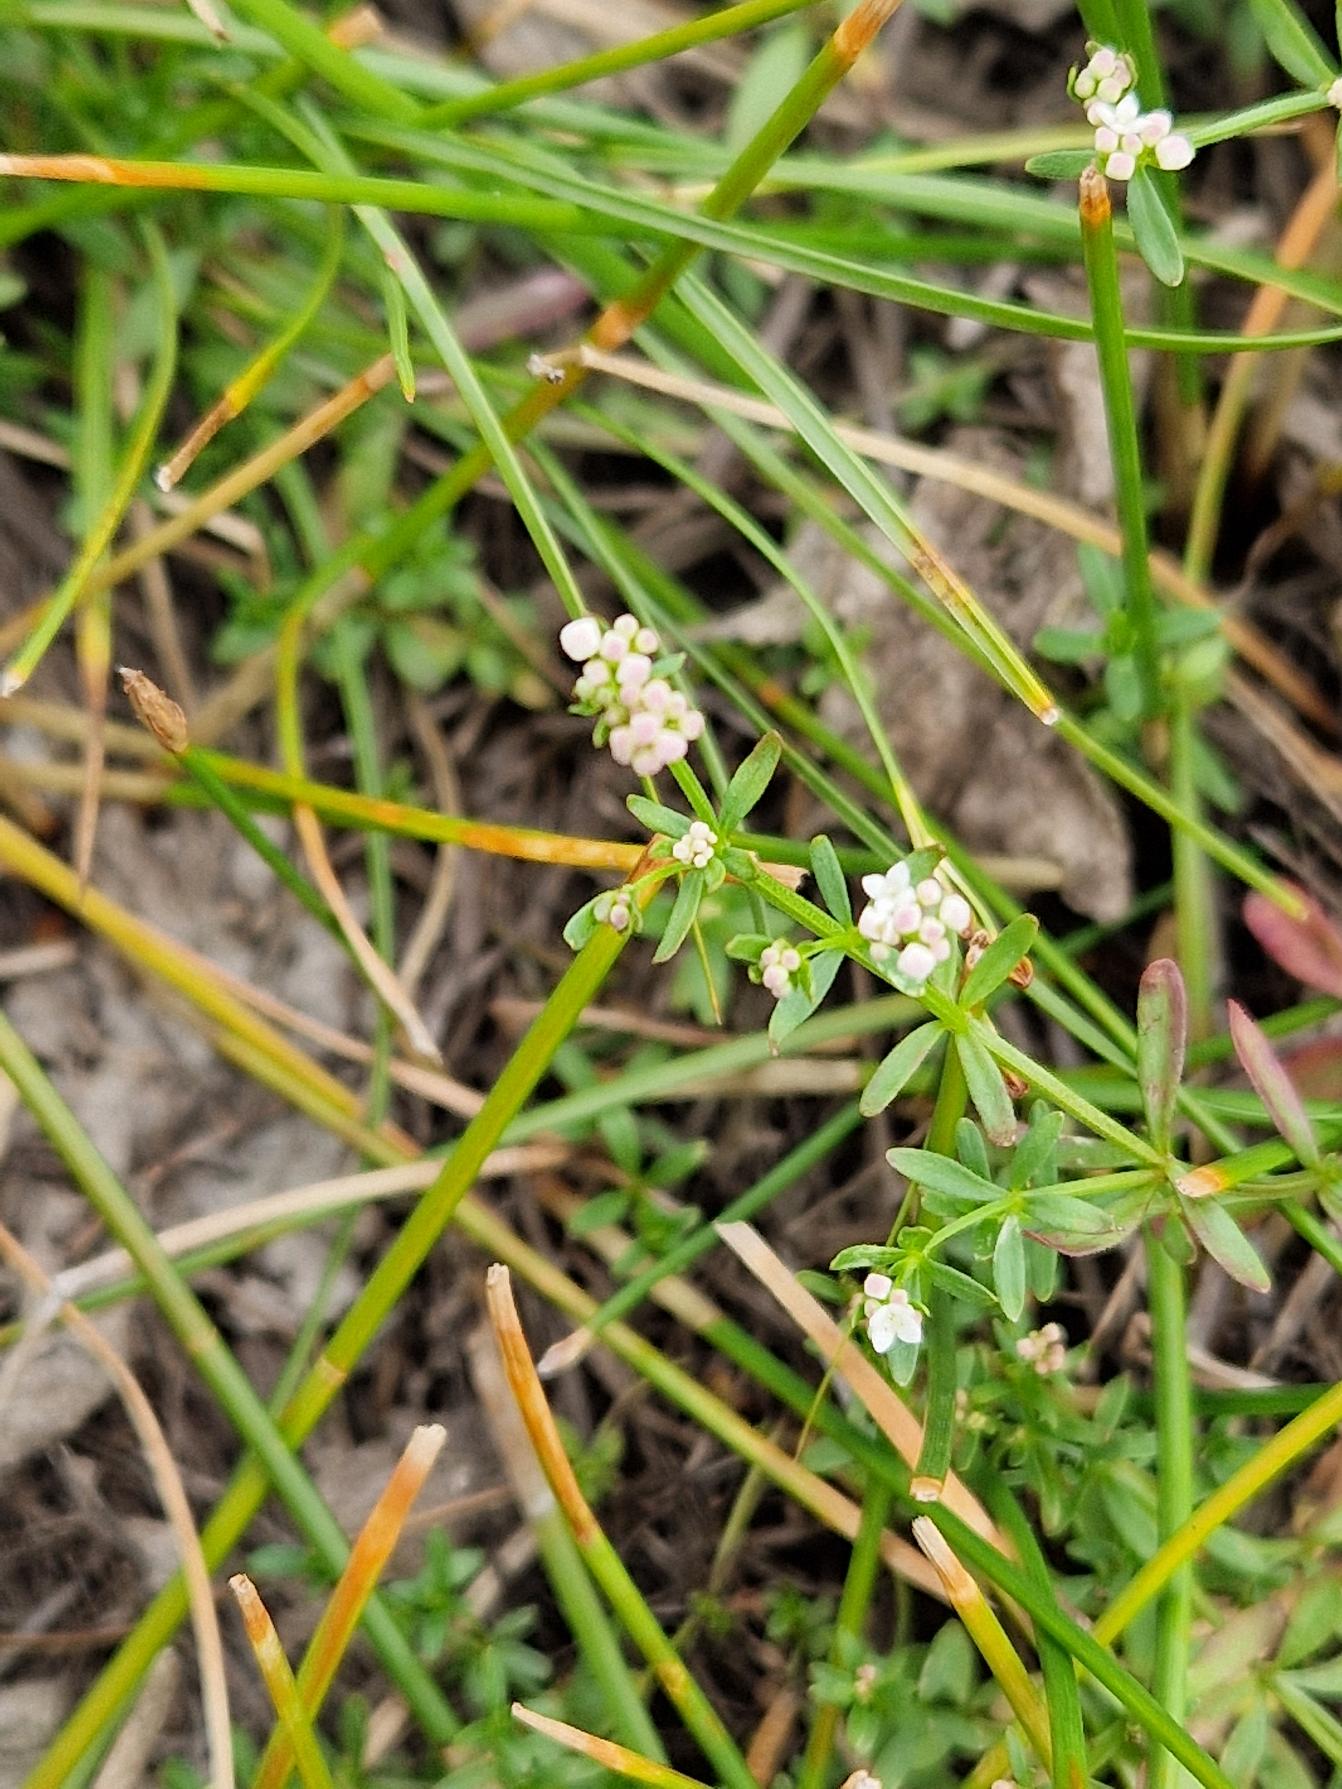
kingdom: Plantae
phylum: Tracheophyta
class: Magnoliopsida
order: Gentianales
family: Rubiaceae
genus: Galium
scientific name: Galium palustre
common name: Kær-snerre
